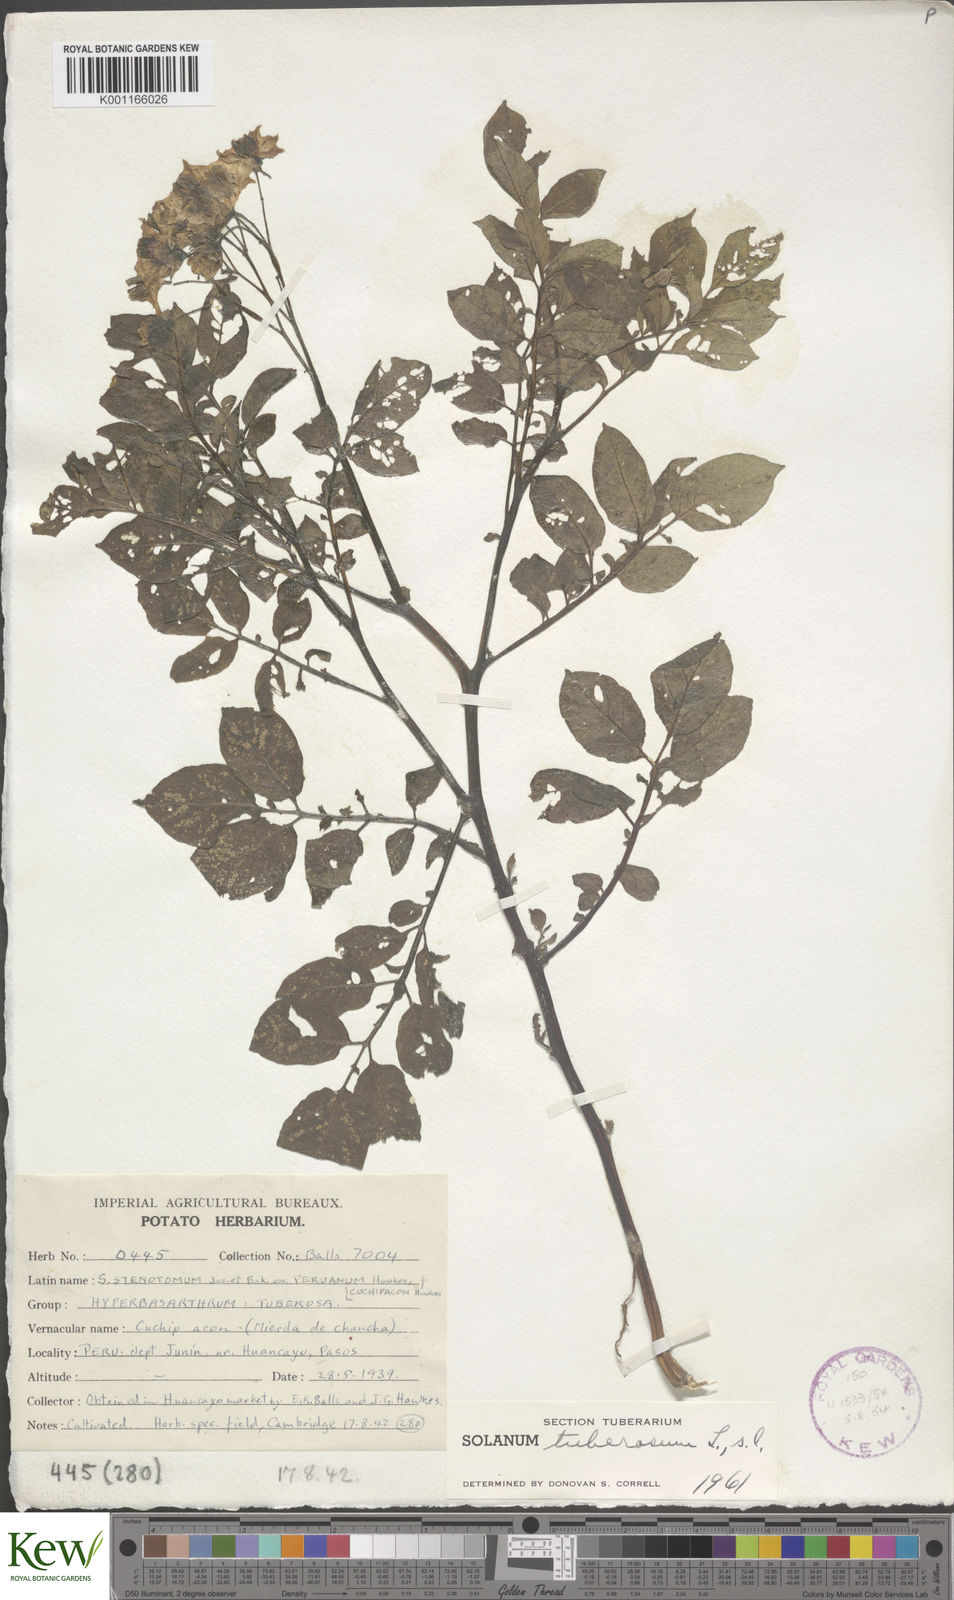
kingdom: Plantae
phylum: Tracheophyta
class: Magnoliopsida
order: Solanales
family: Solanaceae
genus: Solanum
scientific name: Solanum tuberosum
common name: Potato
